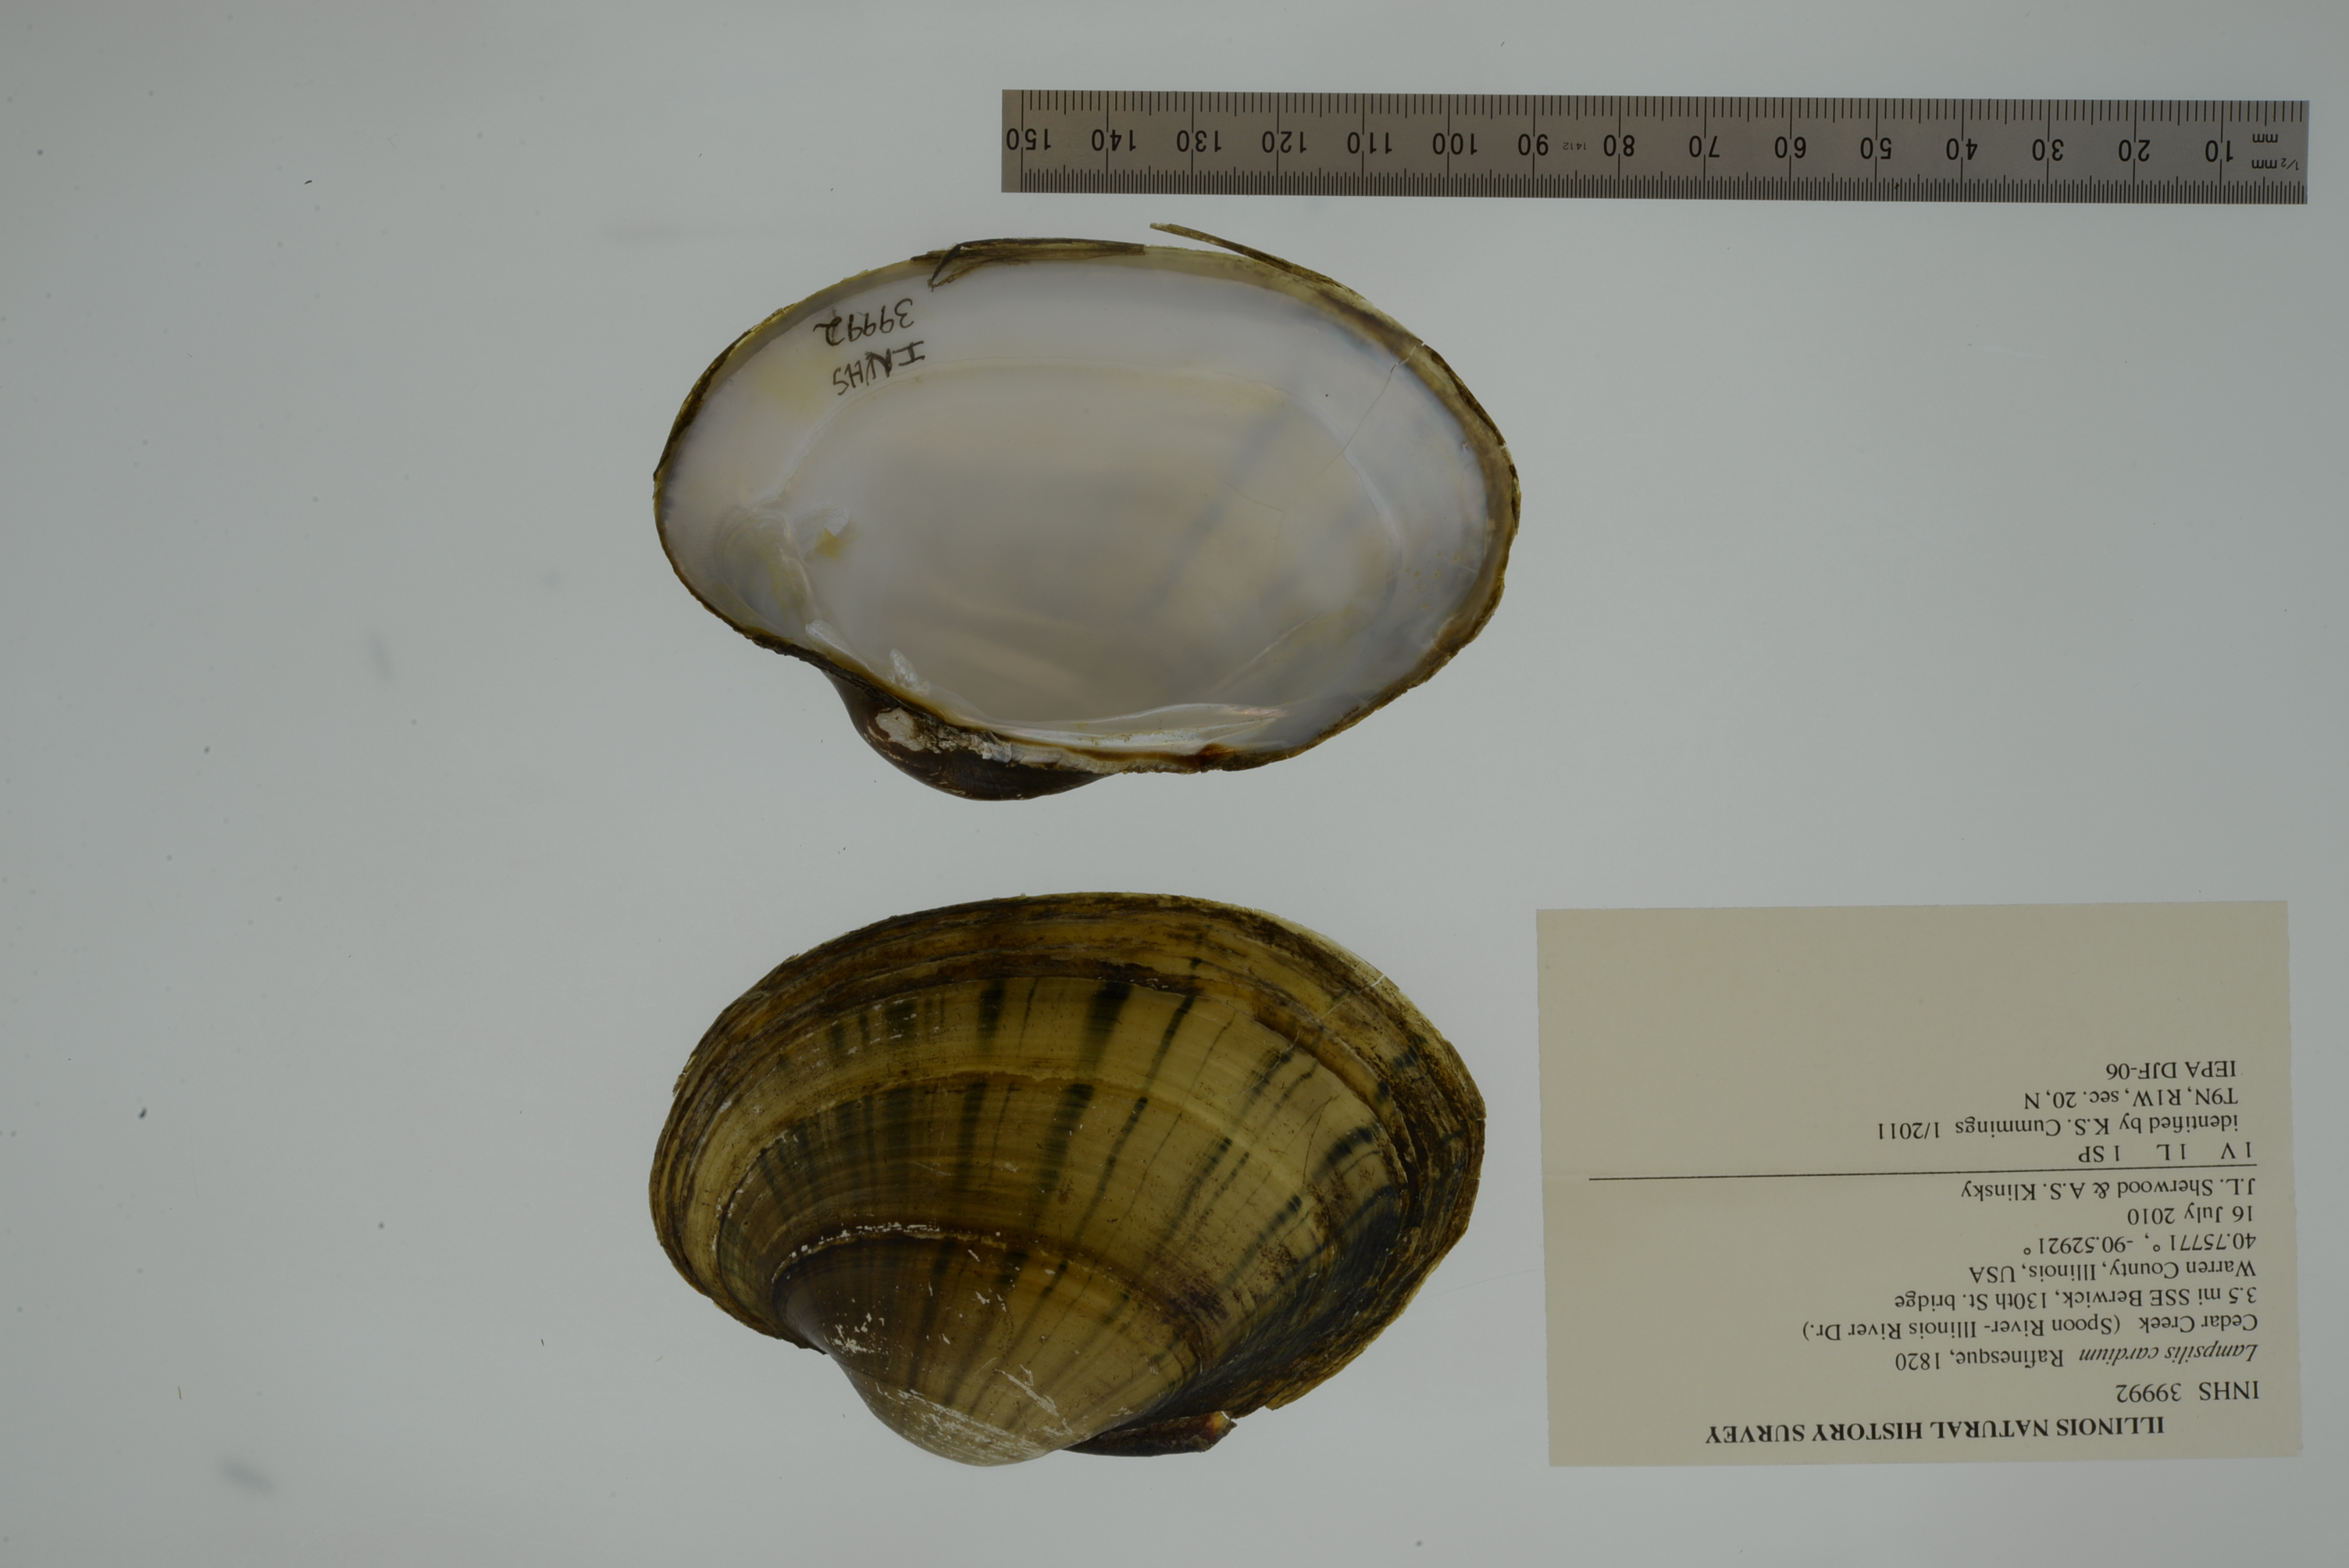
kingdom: Animalia
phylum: Mollusca
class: Bivalvia
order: Unionida
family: Unionidae
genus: Lampsilis
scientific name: Lampsilis cardium
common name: Plain pocketbook
